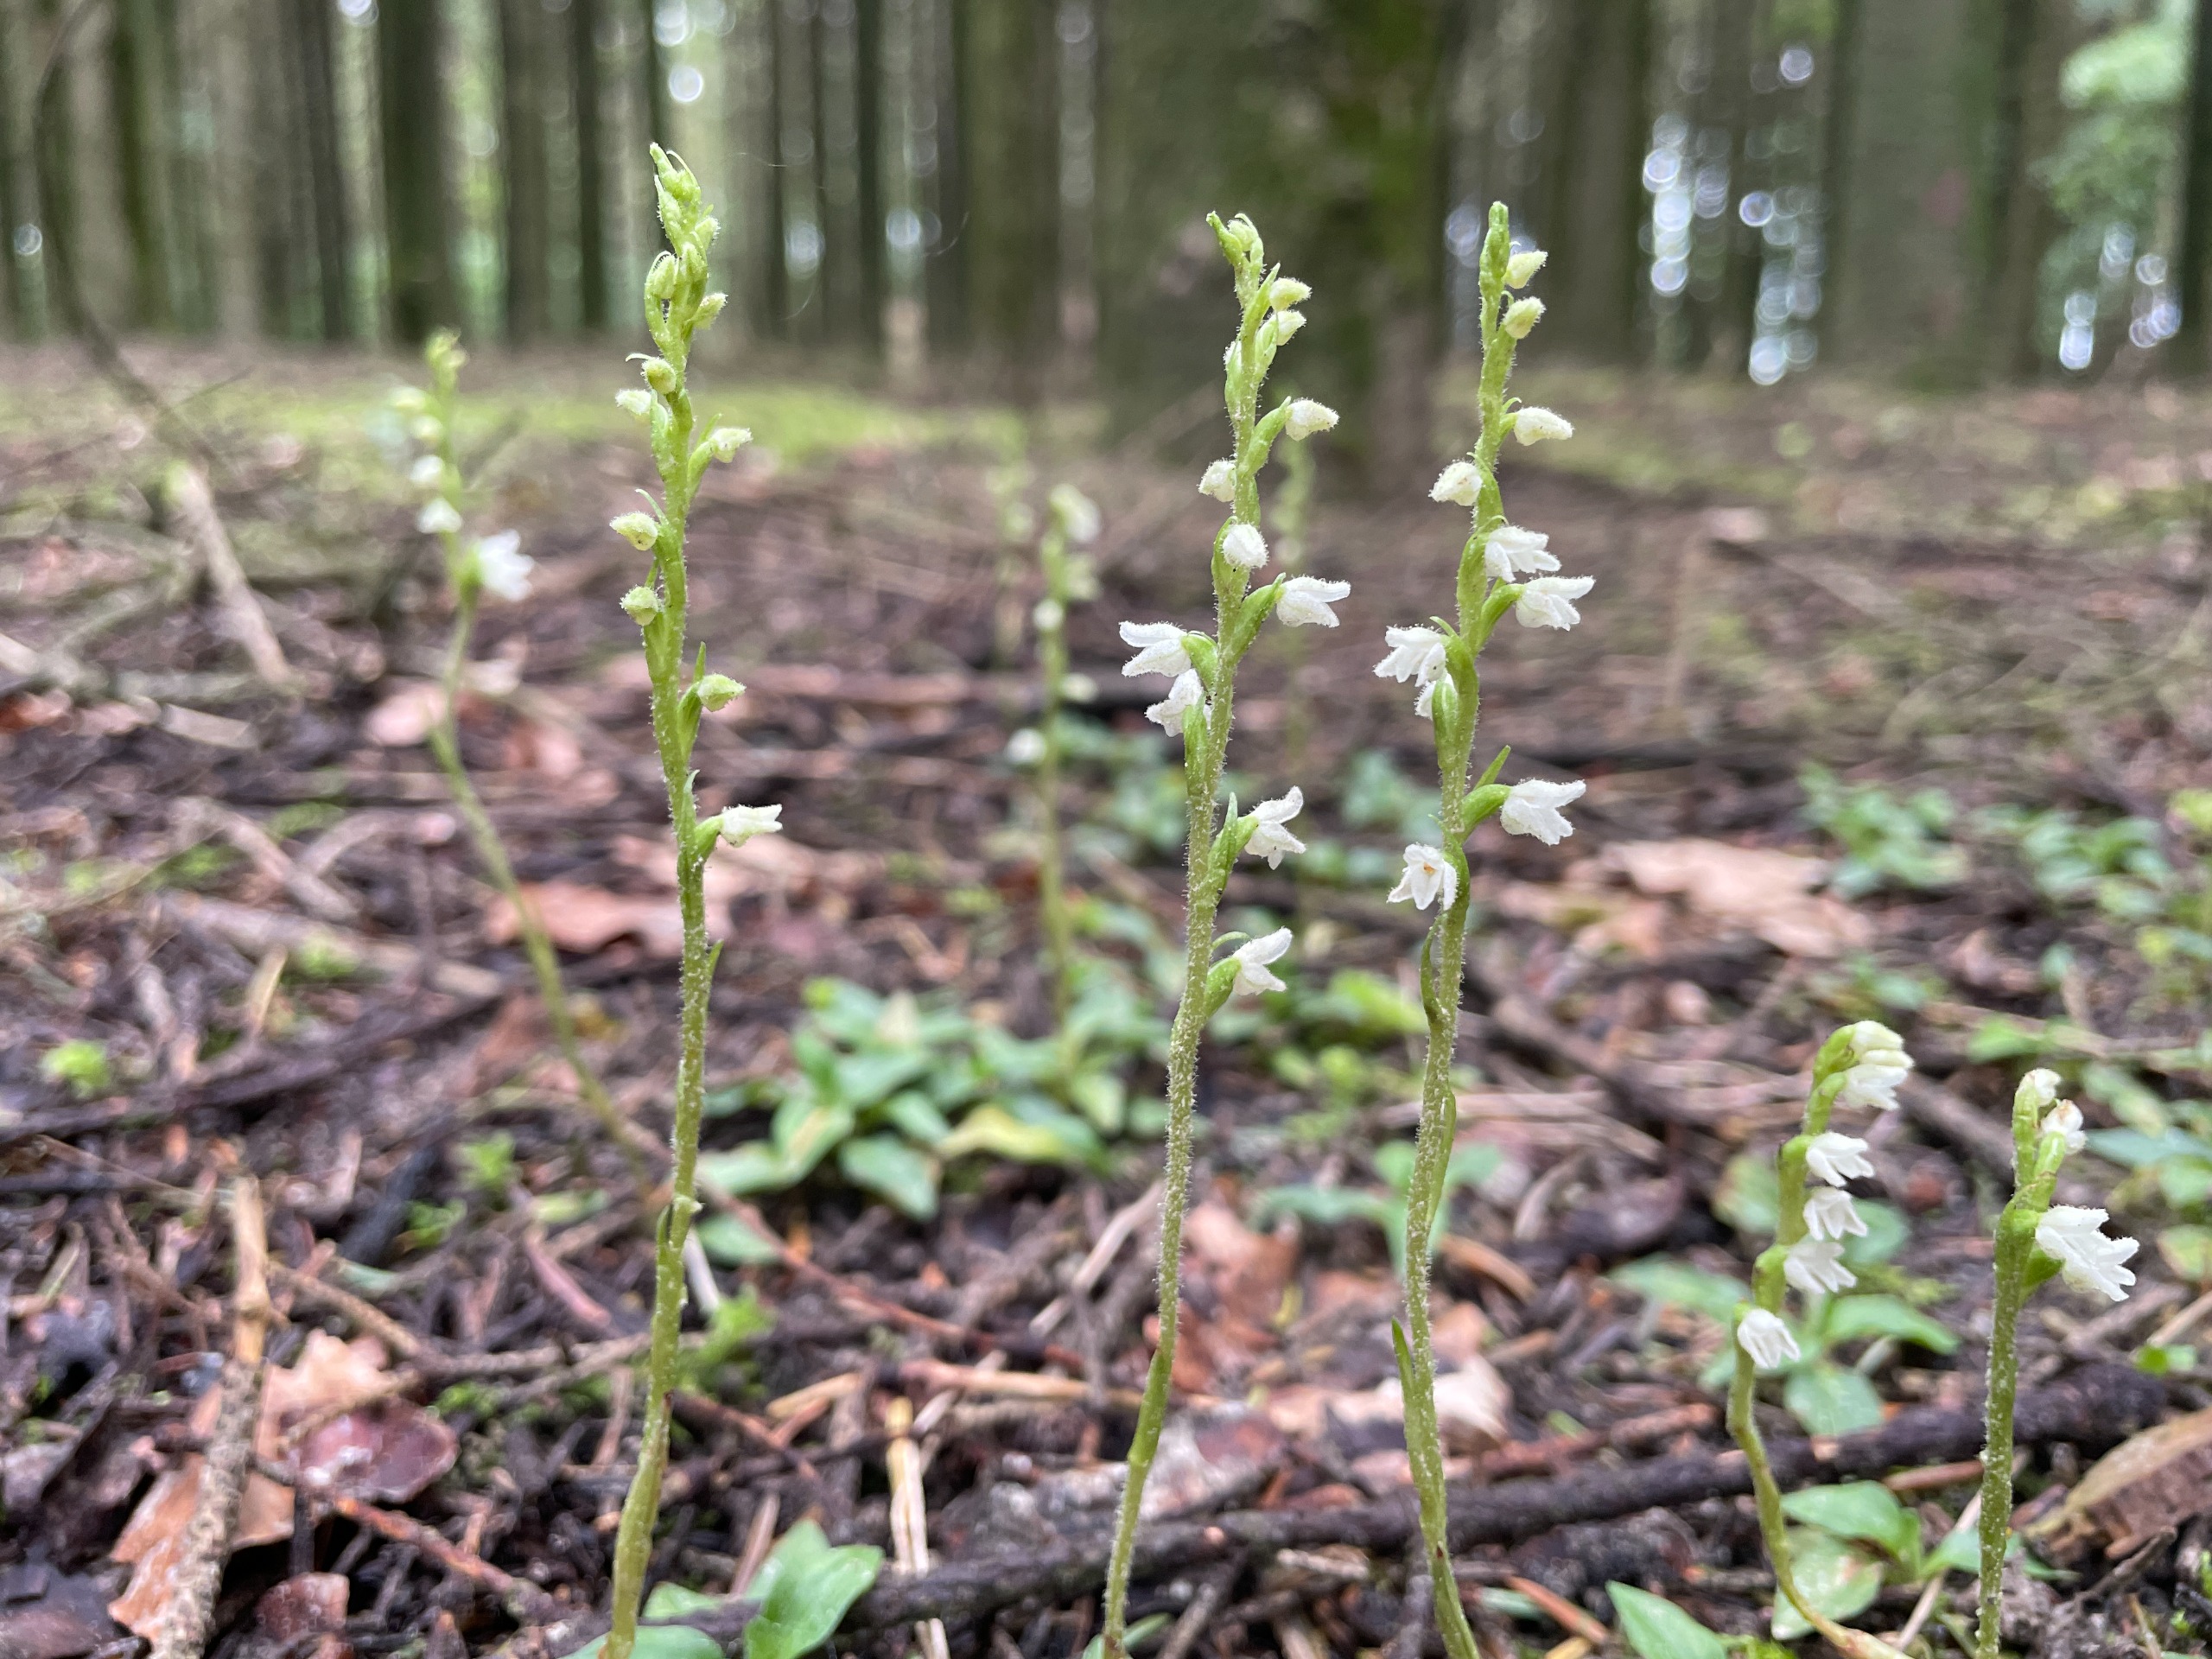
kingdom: Plantae
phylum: Tracheophyta
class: Liliopsida
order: Asparagales
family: Orchidaceae
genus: Goodyera
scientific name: Goodyera repens
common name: Knærod
